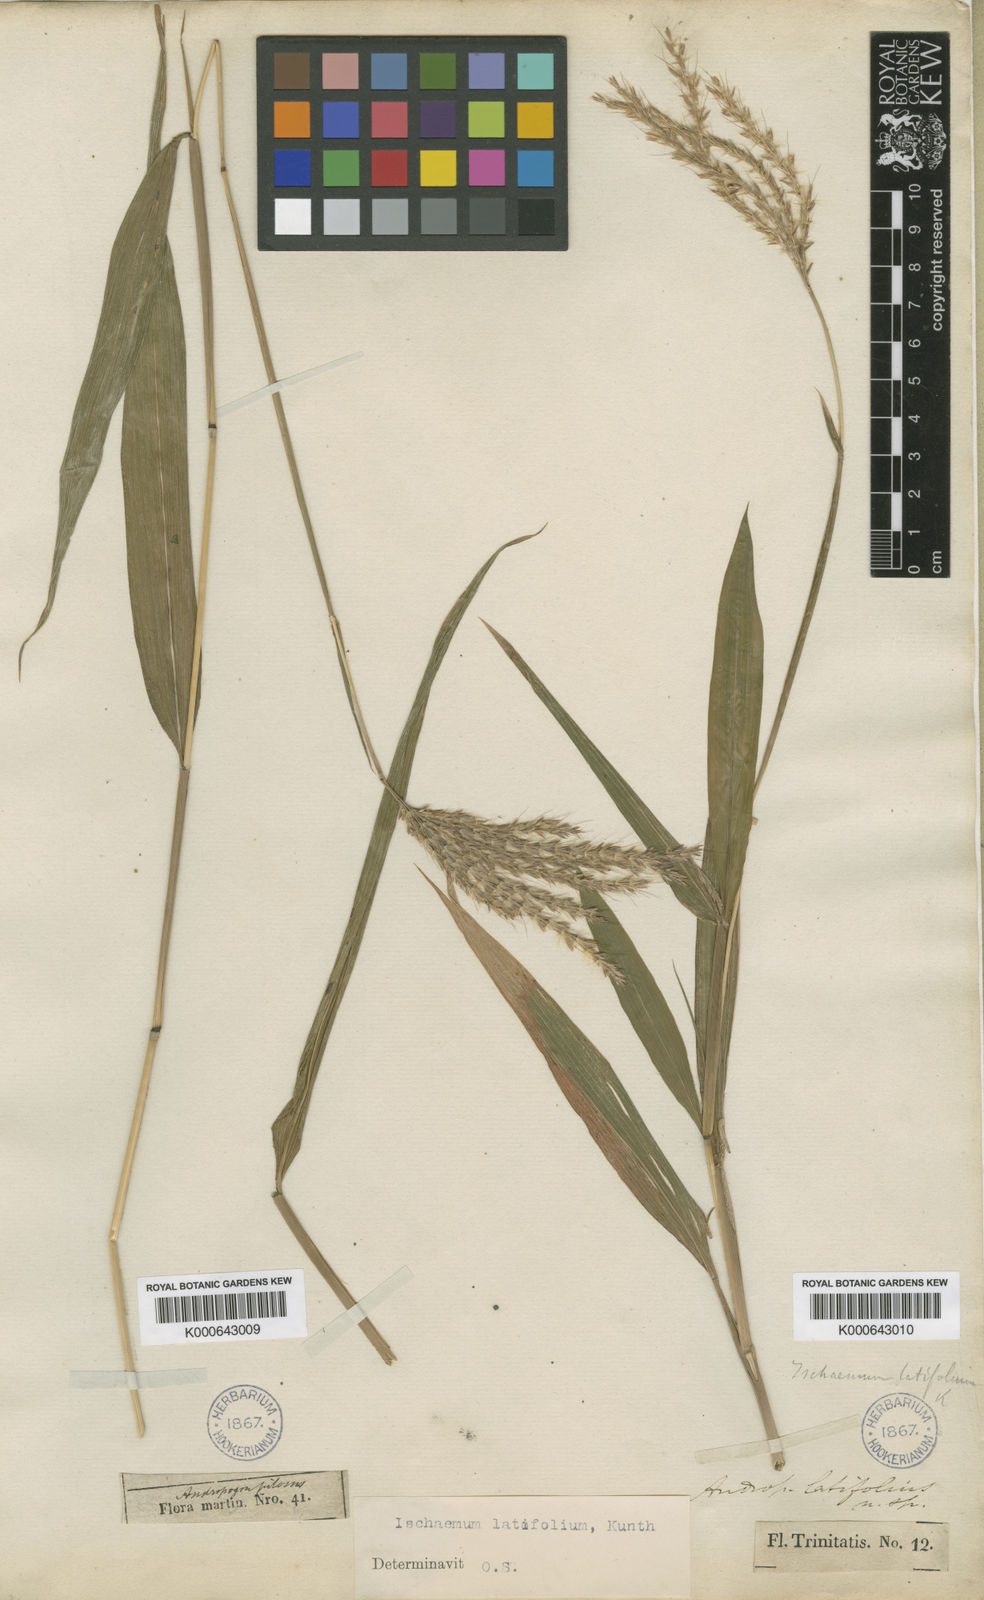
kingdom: Plantae
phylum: Tracheophyta
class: Liliopsida
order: Poales
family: Poaceae
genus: Ischaemum
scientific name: Ischaemum latifolium
